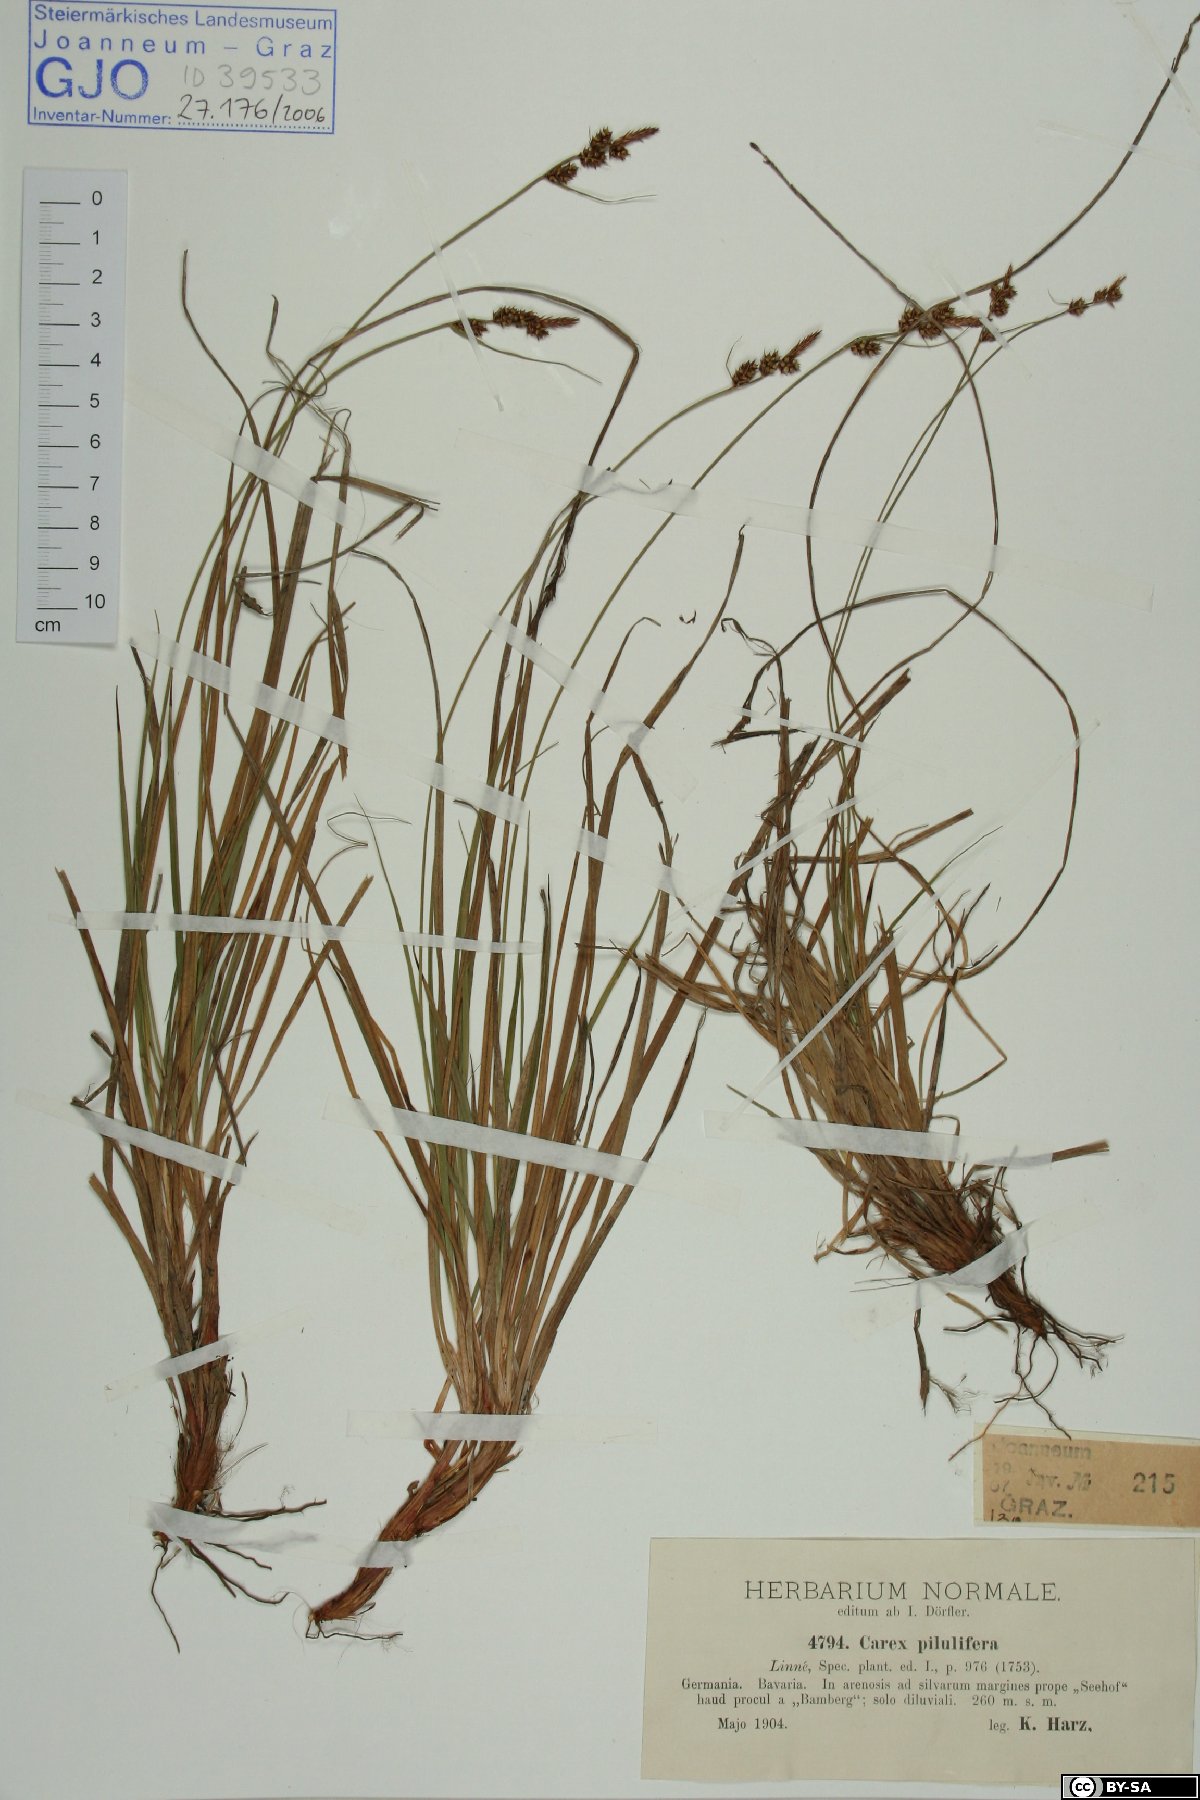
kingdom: Plantae
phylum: Tracheophyta
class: Liliopsida
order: Poales
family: Cyperaceae
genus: Carex
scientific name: Carex pilulifera
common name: Pill sedge
